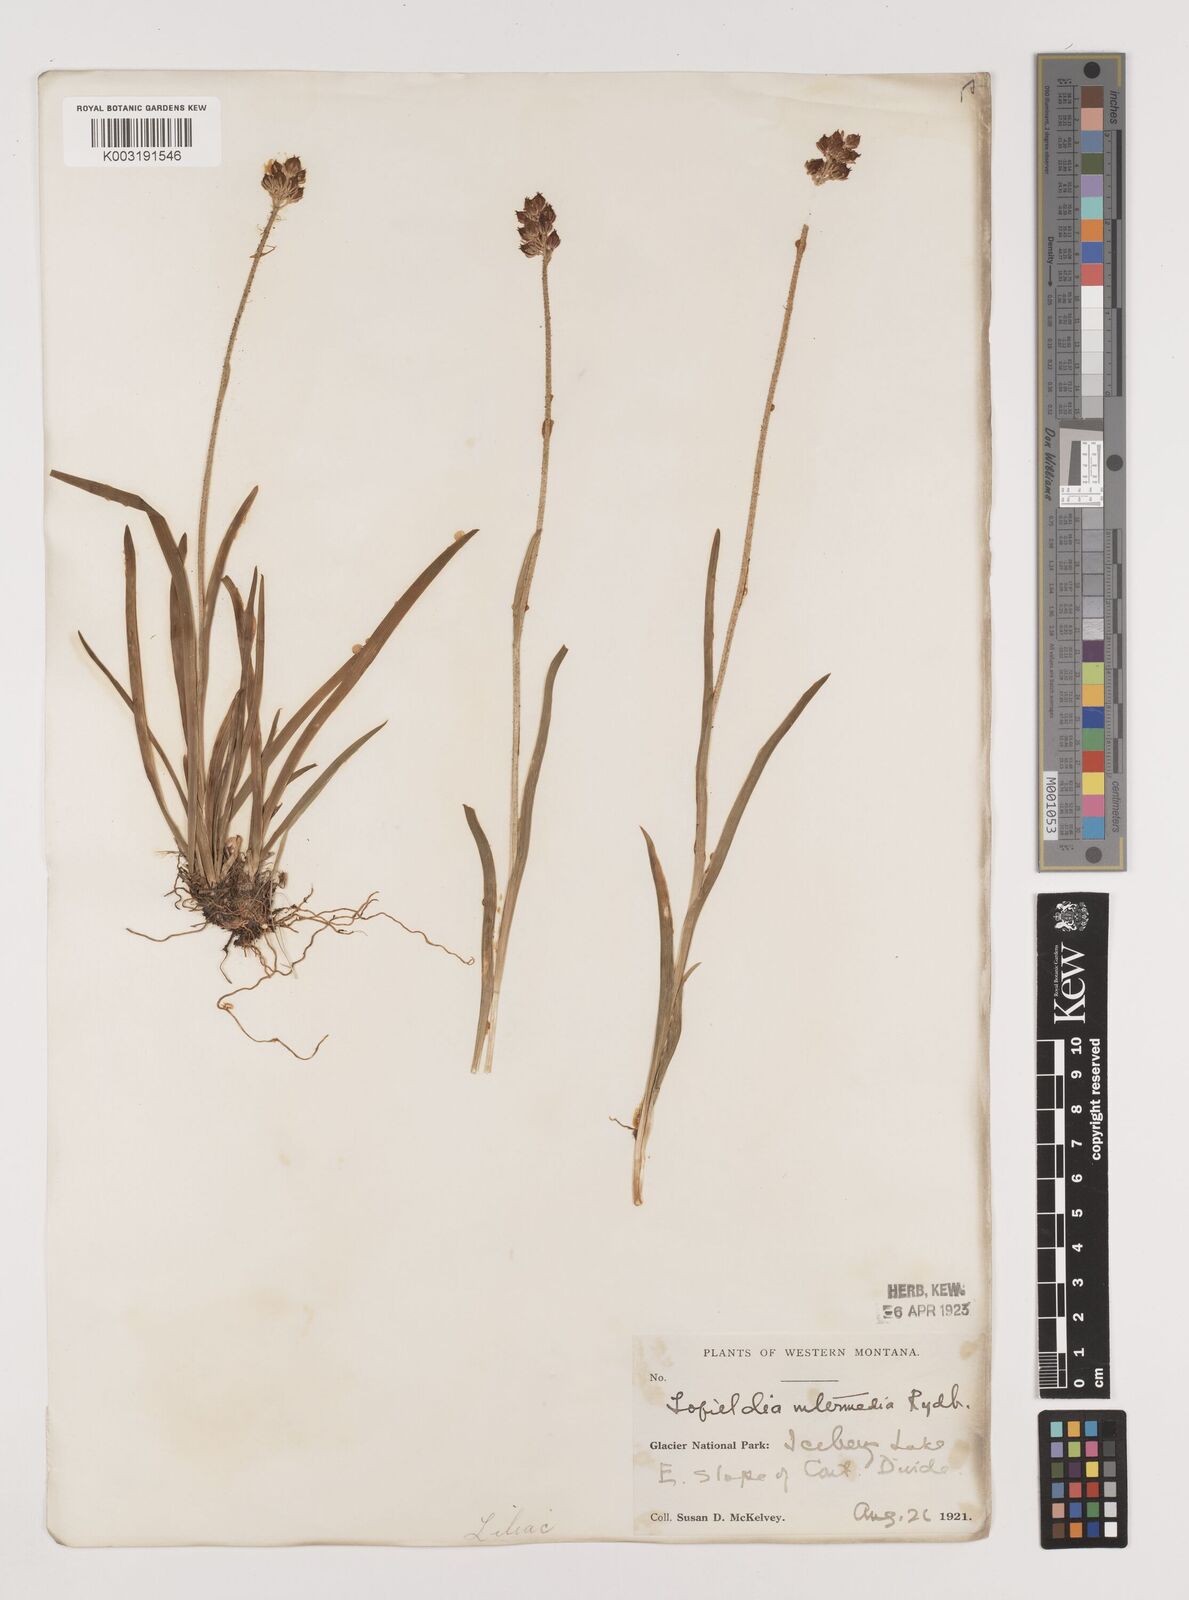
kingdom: Plantae
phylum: Tracheophyta
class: Liliopsida
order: Alismatales
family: Tofieldiaceae
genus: Triantha
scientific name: Triantha occidentalis
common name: Western false asphodel
